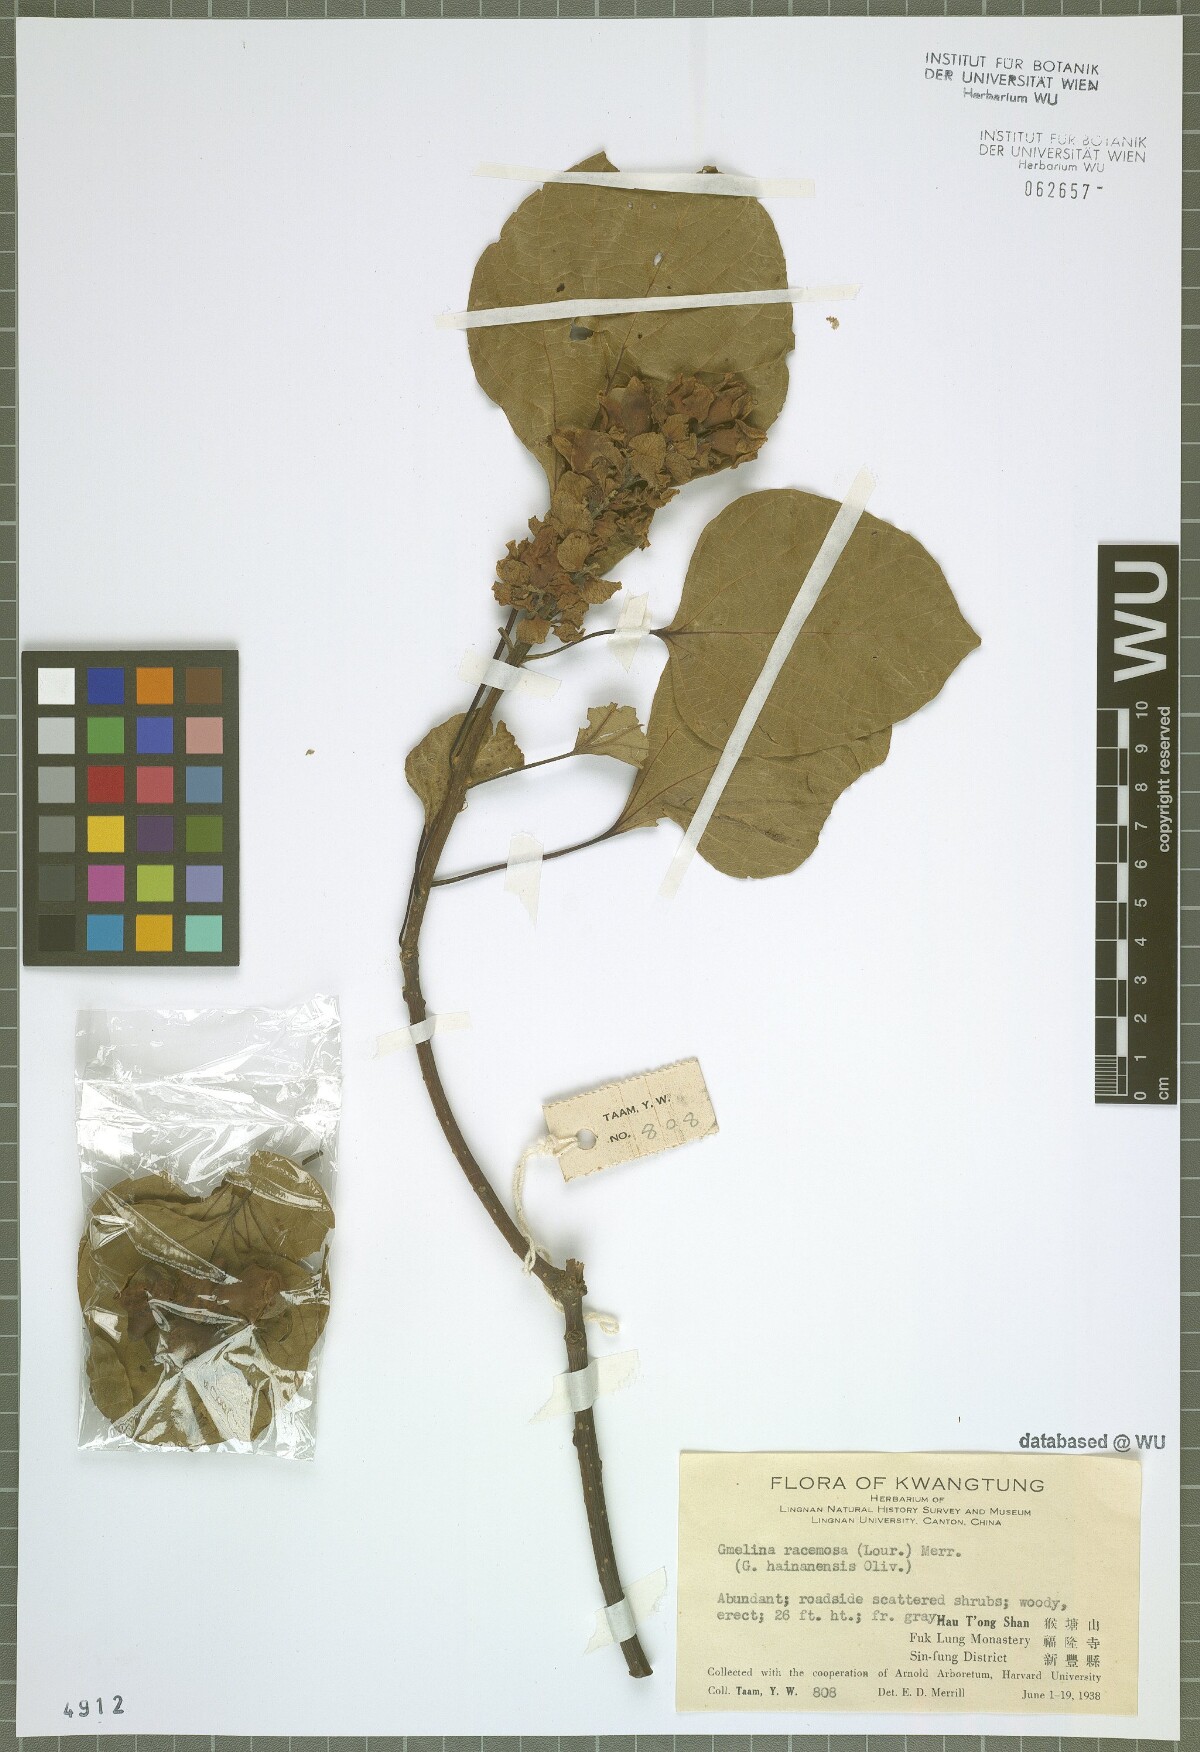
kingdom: Plantae
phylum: Tracheophyta
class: Magnoliopsida
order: Lamiales
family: Lamiaceae
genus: Gmelina
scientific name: Gmelina racemosa
